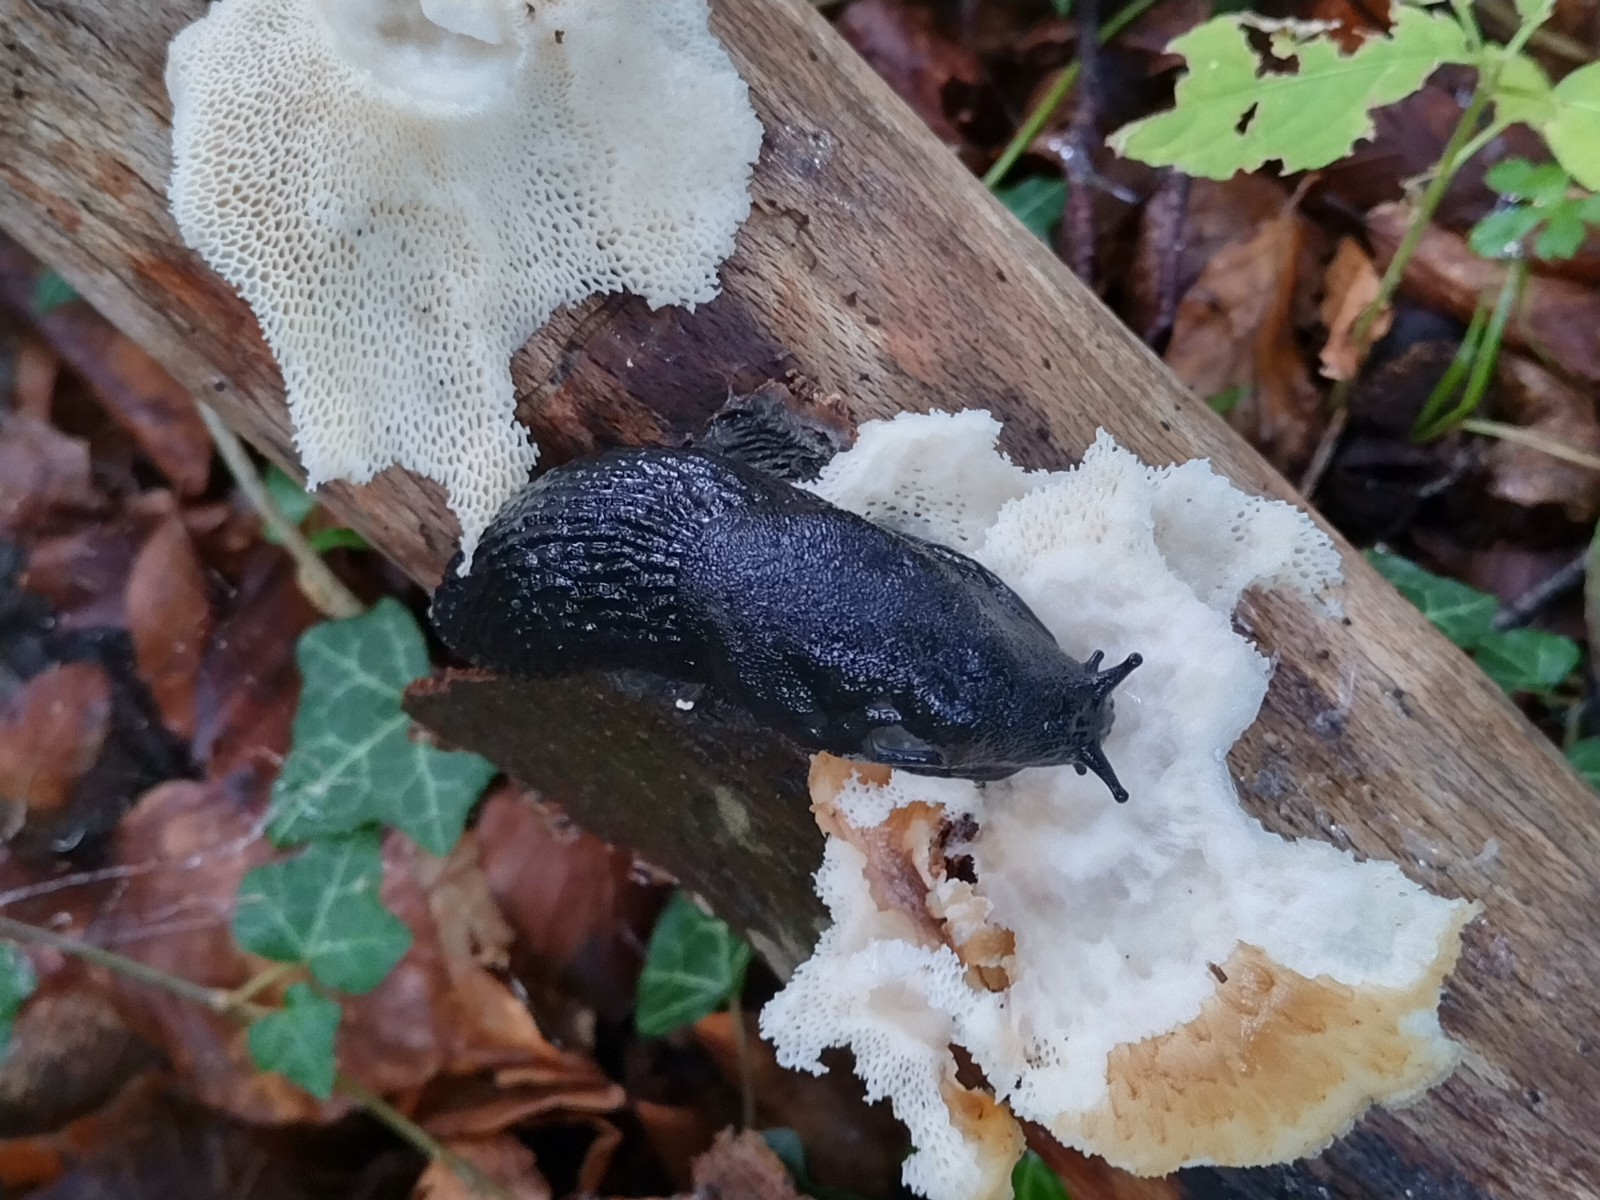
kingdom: Fungi
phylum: Basidiomycota
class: Agaricomycetes
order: Polyporales
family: Polyporaceae
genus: Polyporus
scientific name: Polyporus tuberaster
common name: knoldet stilkporesvamp
